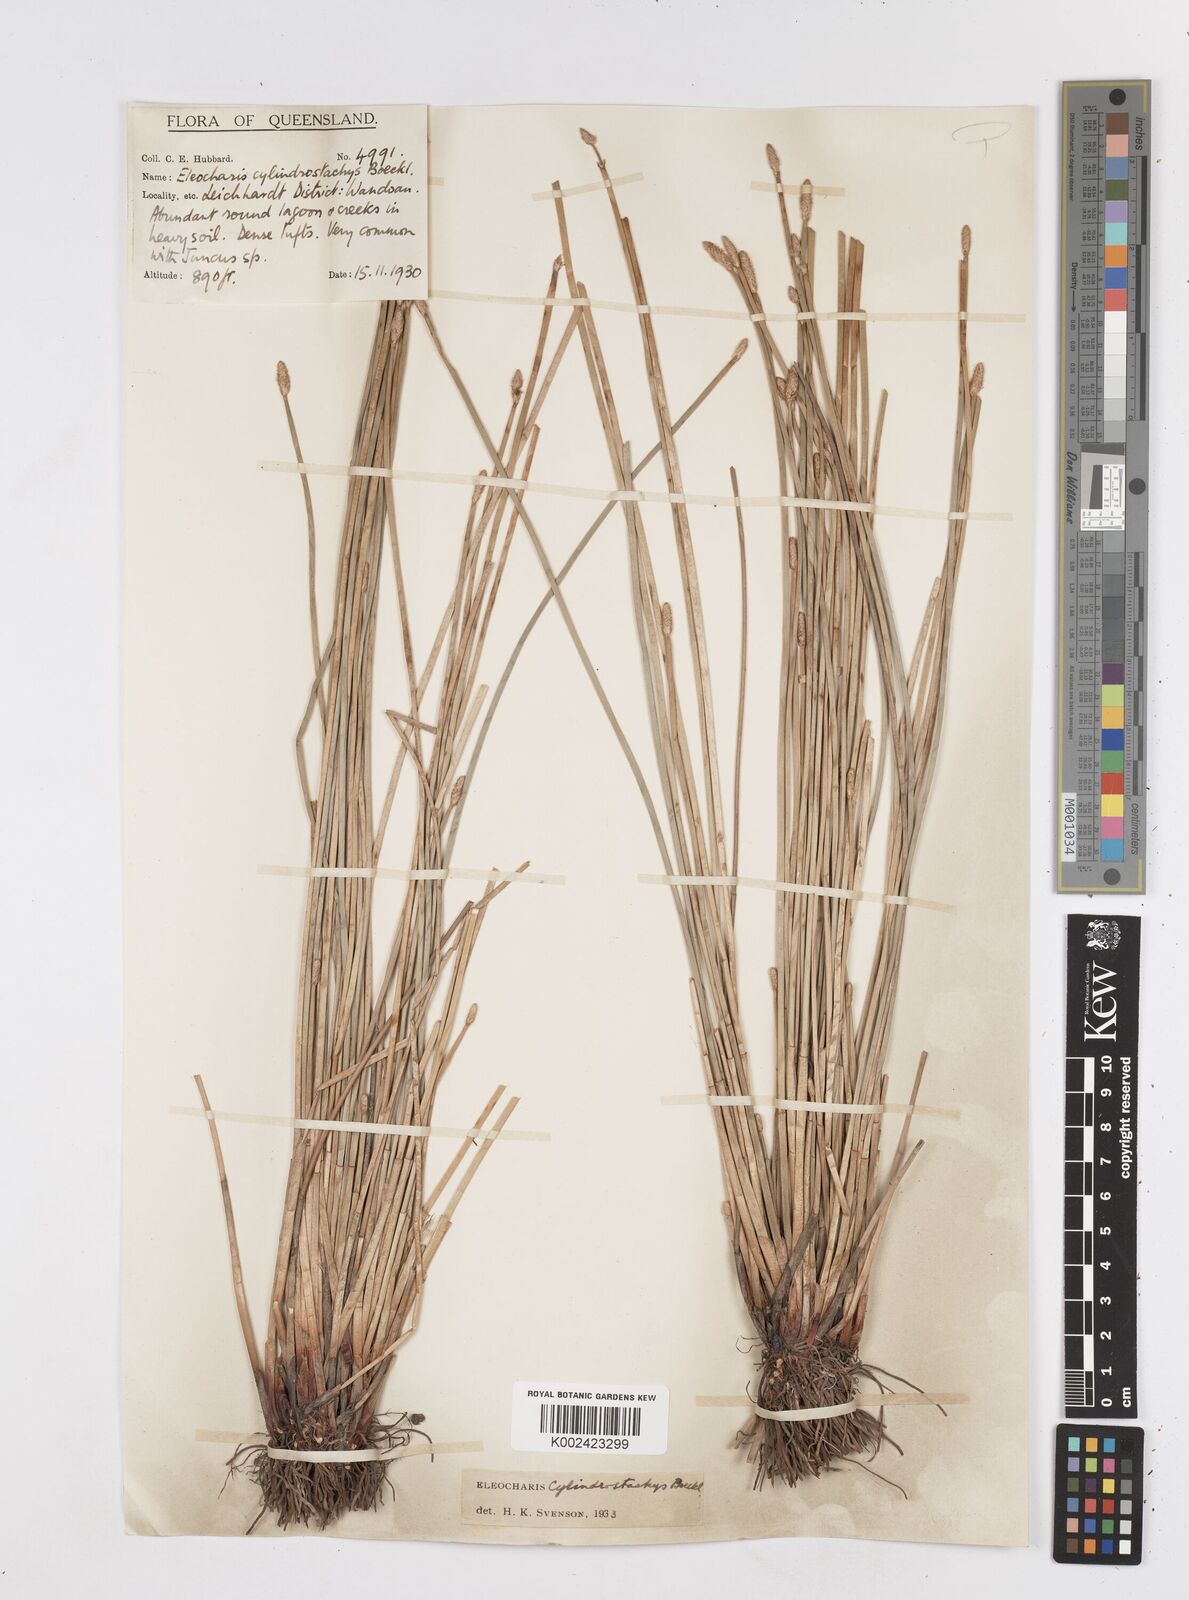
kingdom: Plantae
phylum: Tracheophyta
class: Liliopsida
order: Poales
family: Cyperaceae
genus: Eleocharis
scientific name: Eleocharis cylindrostachys
